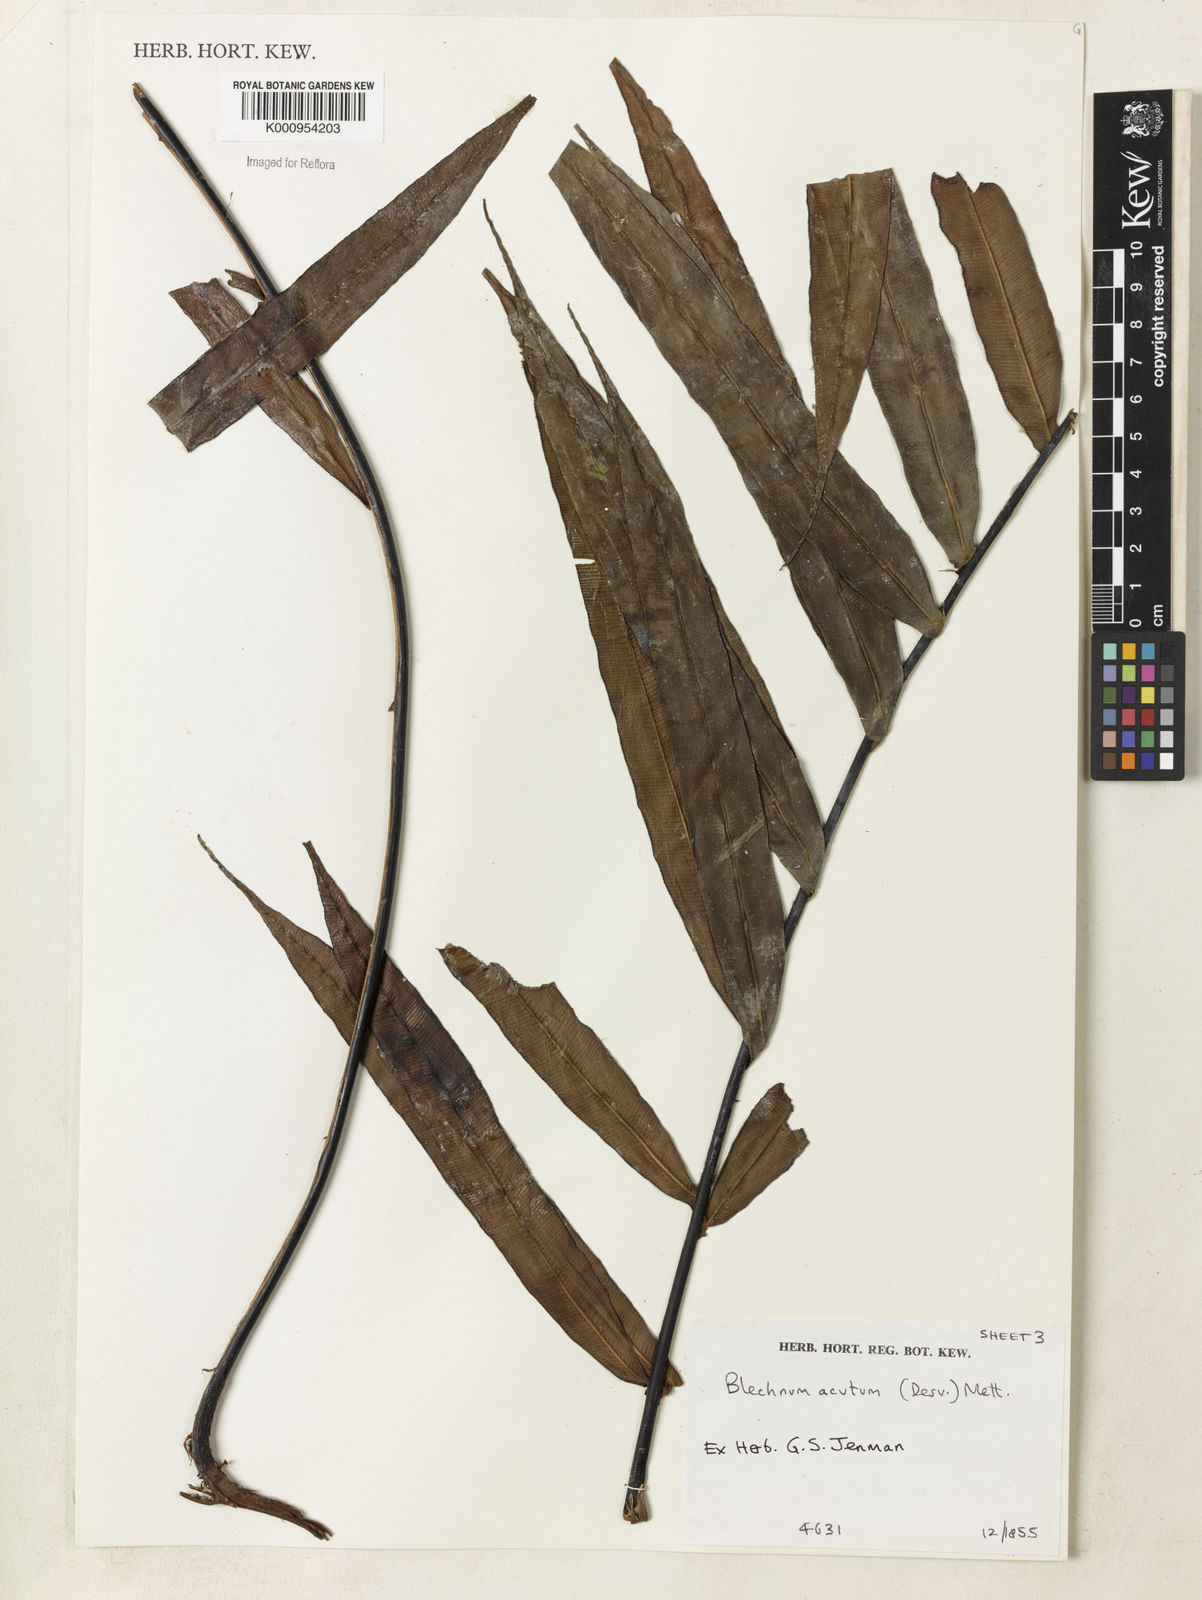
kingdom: Plantae
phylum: Tracheophyta
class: Polypodiopsida
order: Polypodiales
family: Blechnaceae
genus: Lomaridium
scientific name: Lomaridium acutum
